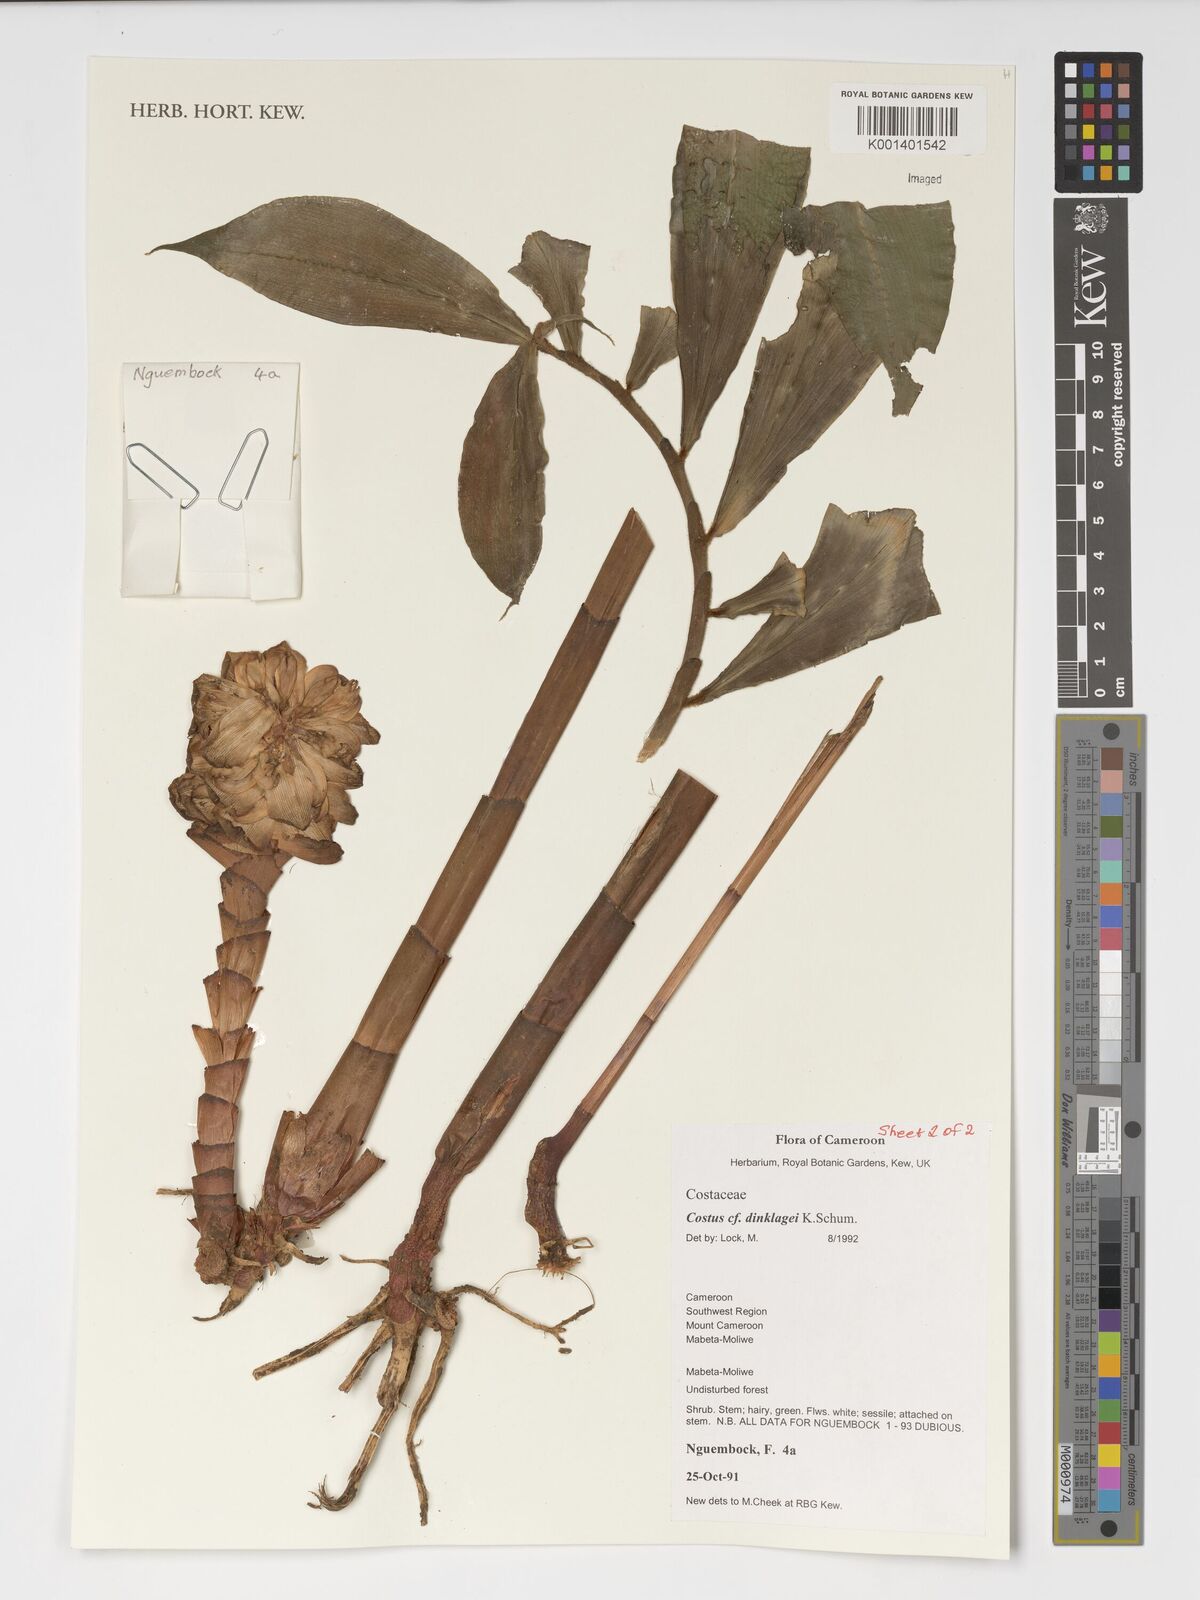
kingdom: Plantae
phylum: Tracheophyta
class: Liliopsida
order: Zingiberales
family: Costaceae
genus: Costus
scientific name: Costus dinklagei
